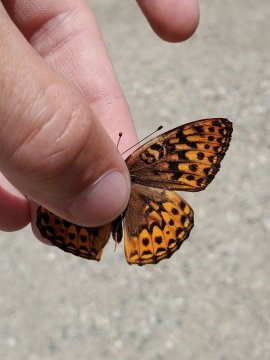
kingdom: Animalia
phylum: Arthropoda
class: Insecta
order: Lepidoptera
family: Nymphalidae
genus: Speyeria
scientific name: Speyeria hydaspe
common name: Hydaspe Fritillary
